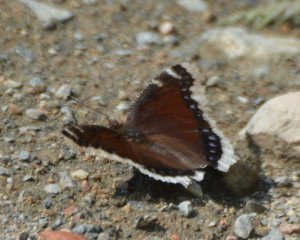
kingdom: Animalia
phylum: Arthropoda
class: Insecta
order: Lepidoptera
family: Nymphalidae
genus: Nymphalis
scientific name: Nymphalis antiopa
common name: Mourning Cloak
